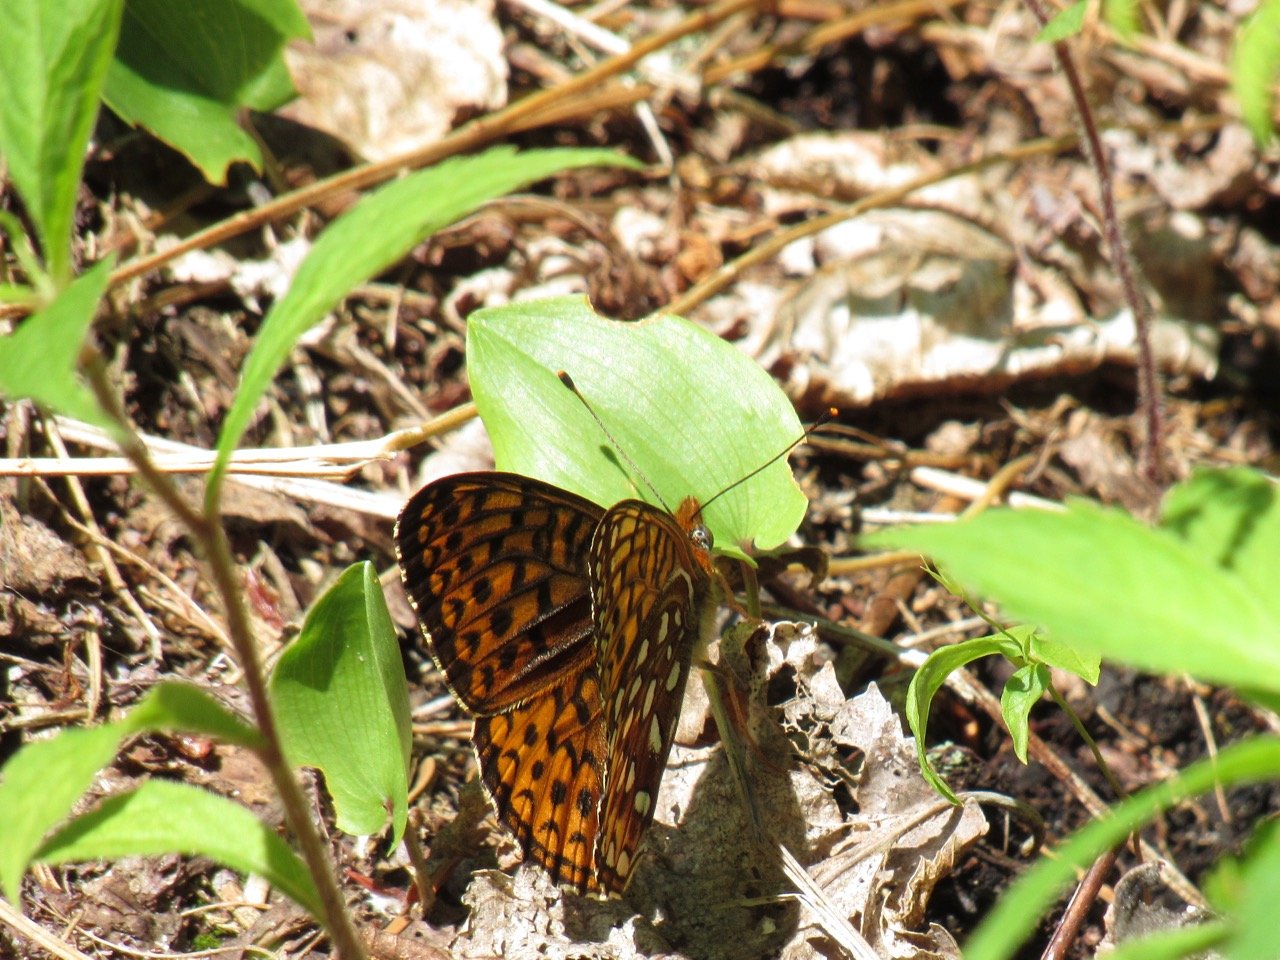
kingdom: Animalia
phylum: Arthropoda
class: Insecta
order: Lepidoptera
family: Nymphalidae
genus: Speyeria
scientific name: Speyeria atlantis
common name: Atlantis Fritillary
